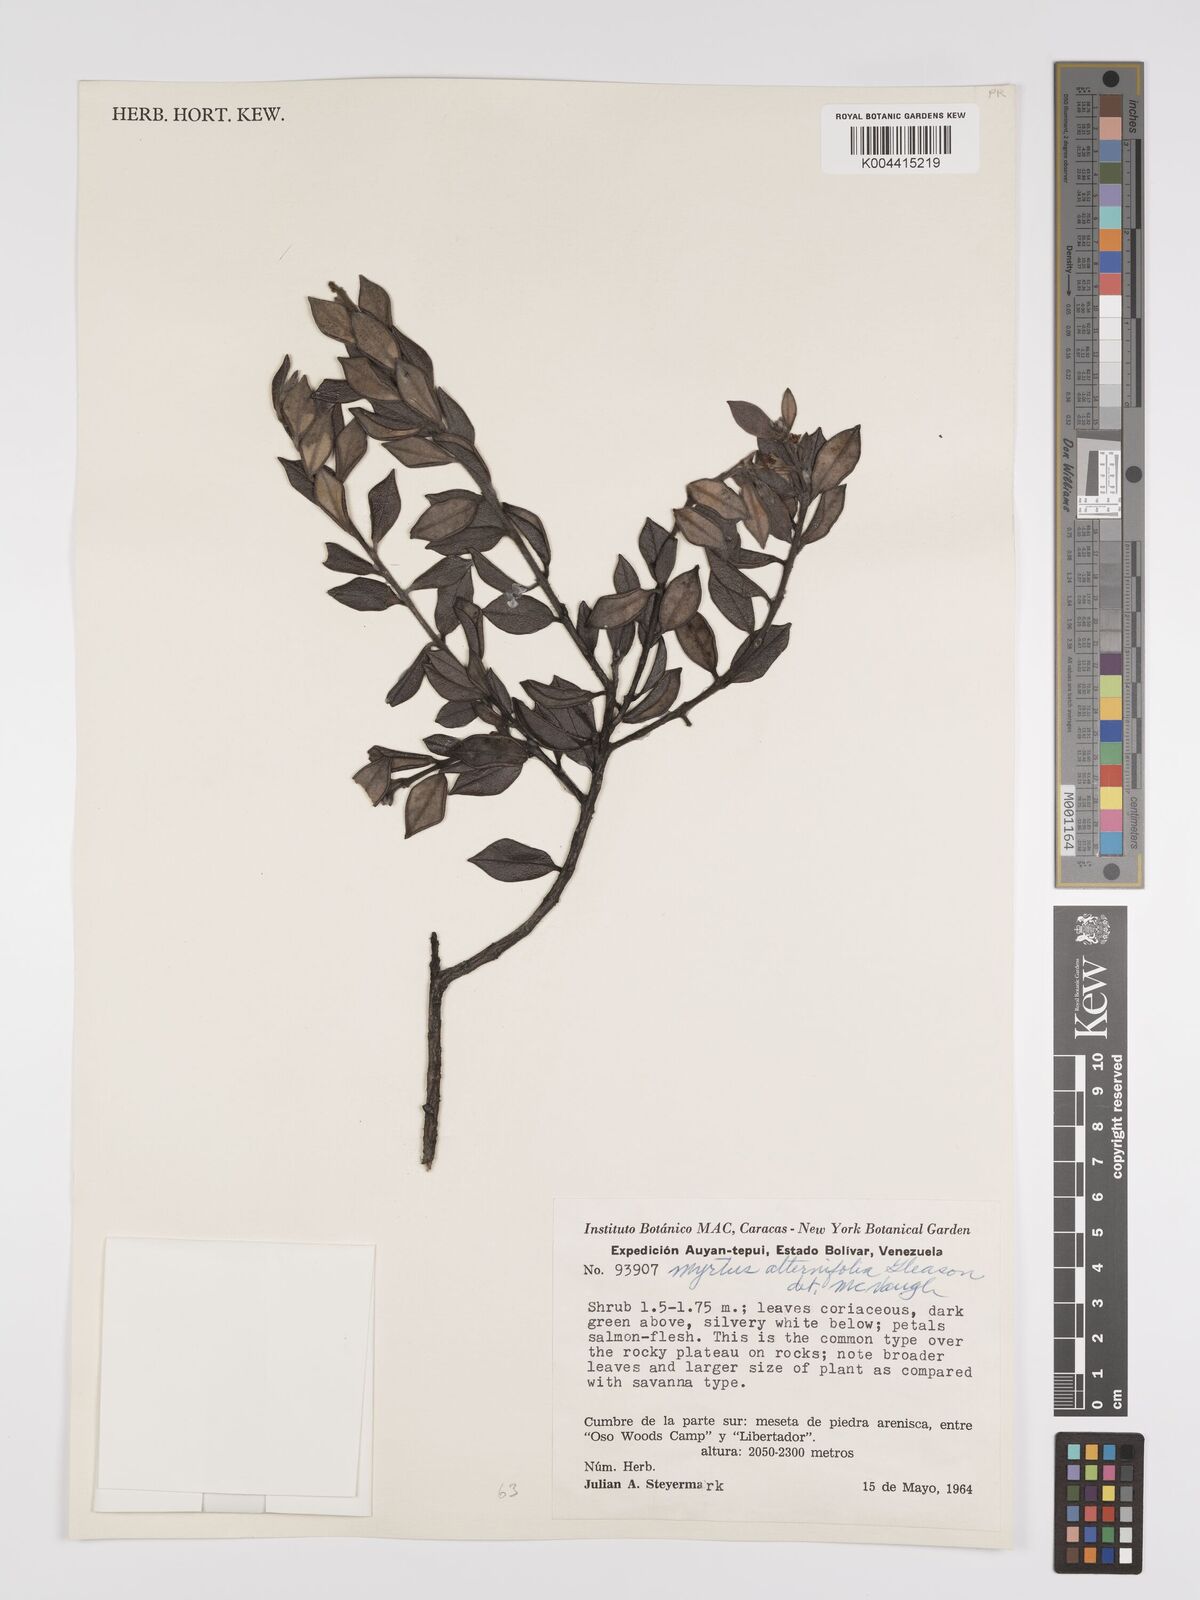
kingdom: Plantae
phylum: Tracheophyta
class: Magnoliopsida
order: Myrtales
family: Myrtaceae
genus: Calycolpus
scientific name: Calycolpus alternifolius
